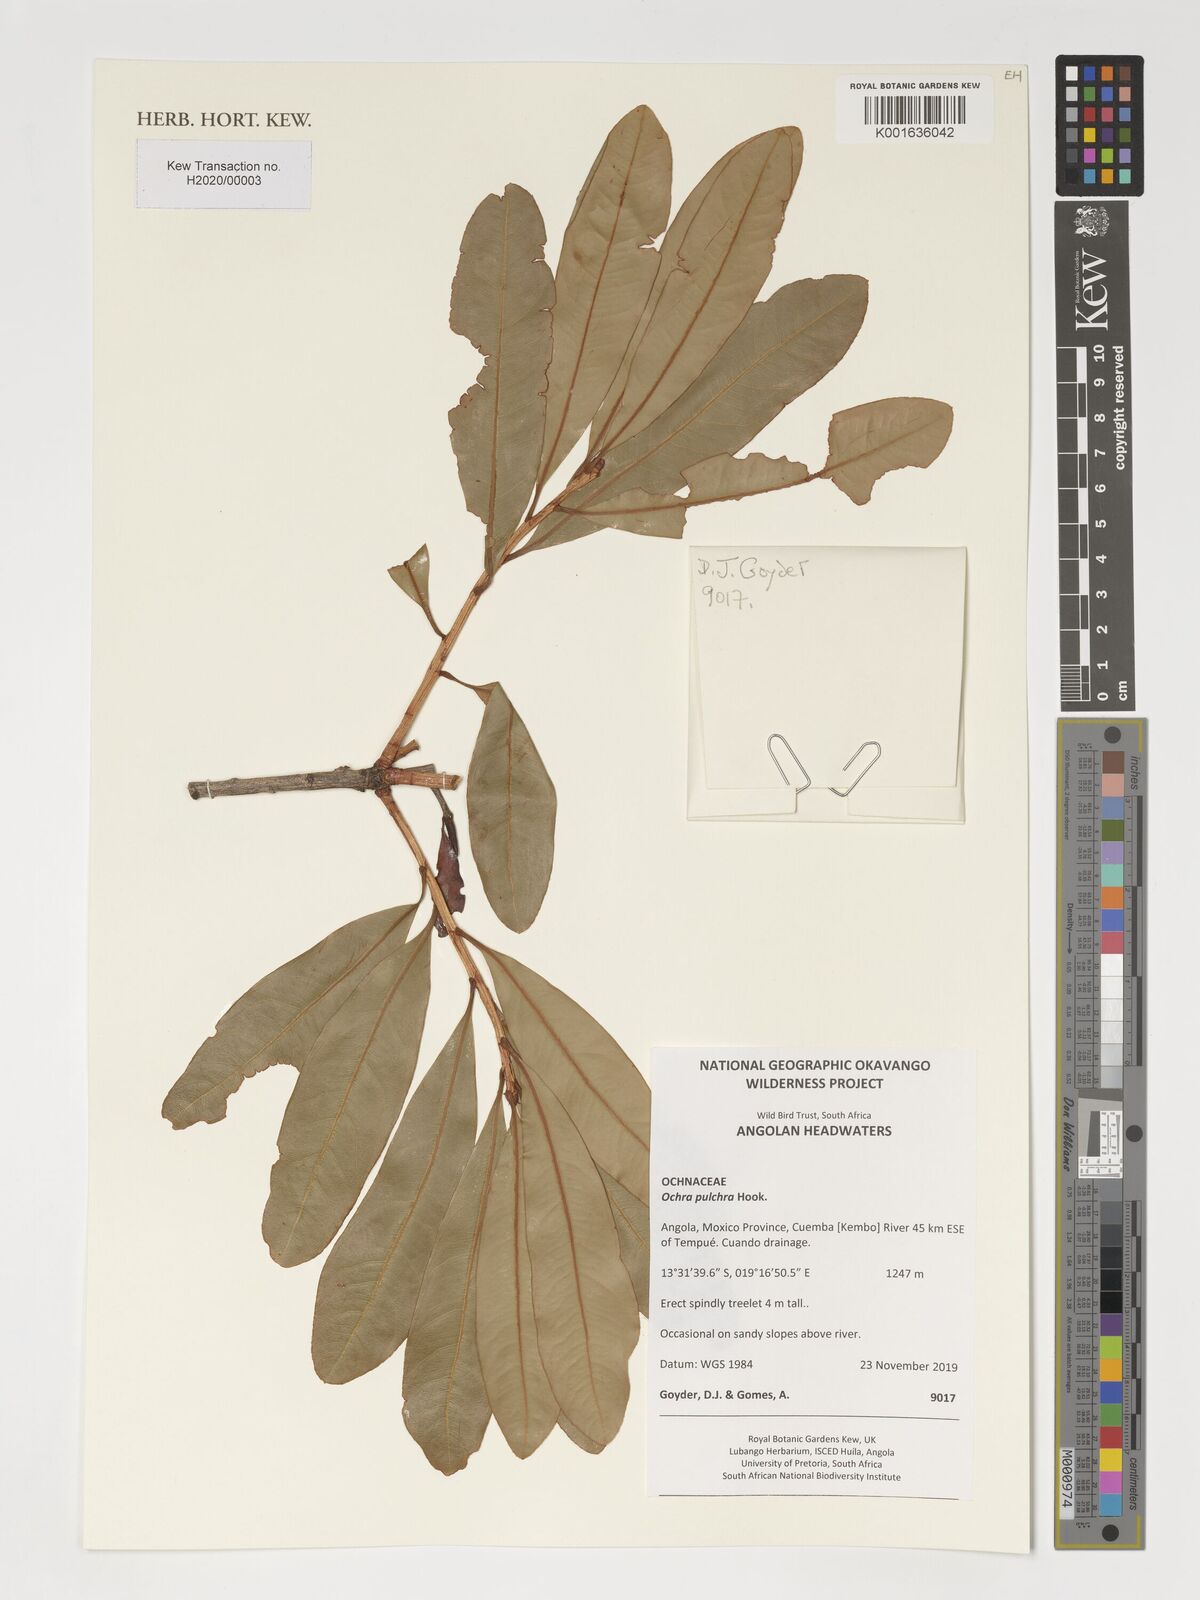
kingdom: Plantae
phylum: Tracheophyta
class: Magnoliopsida
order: Malpighiales
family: Ochnaceae
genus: Ochna
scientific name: Ochna pulchra
